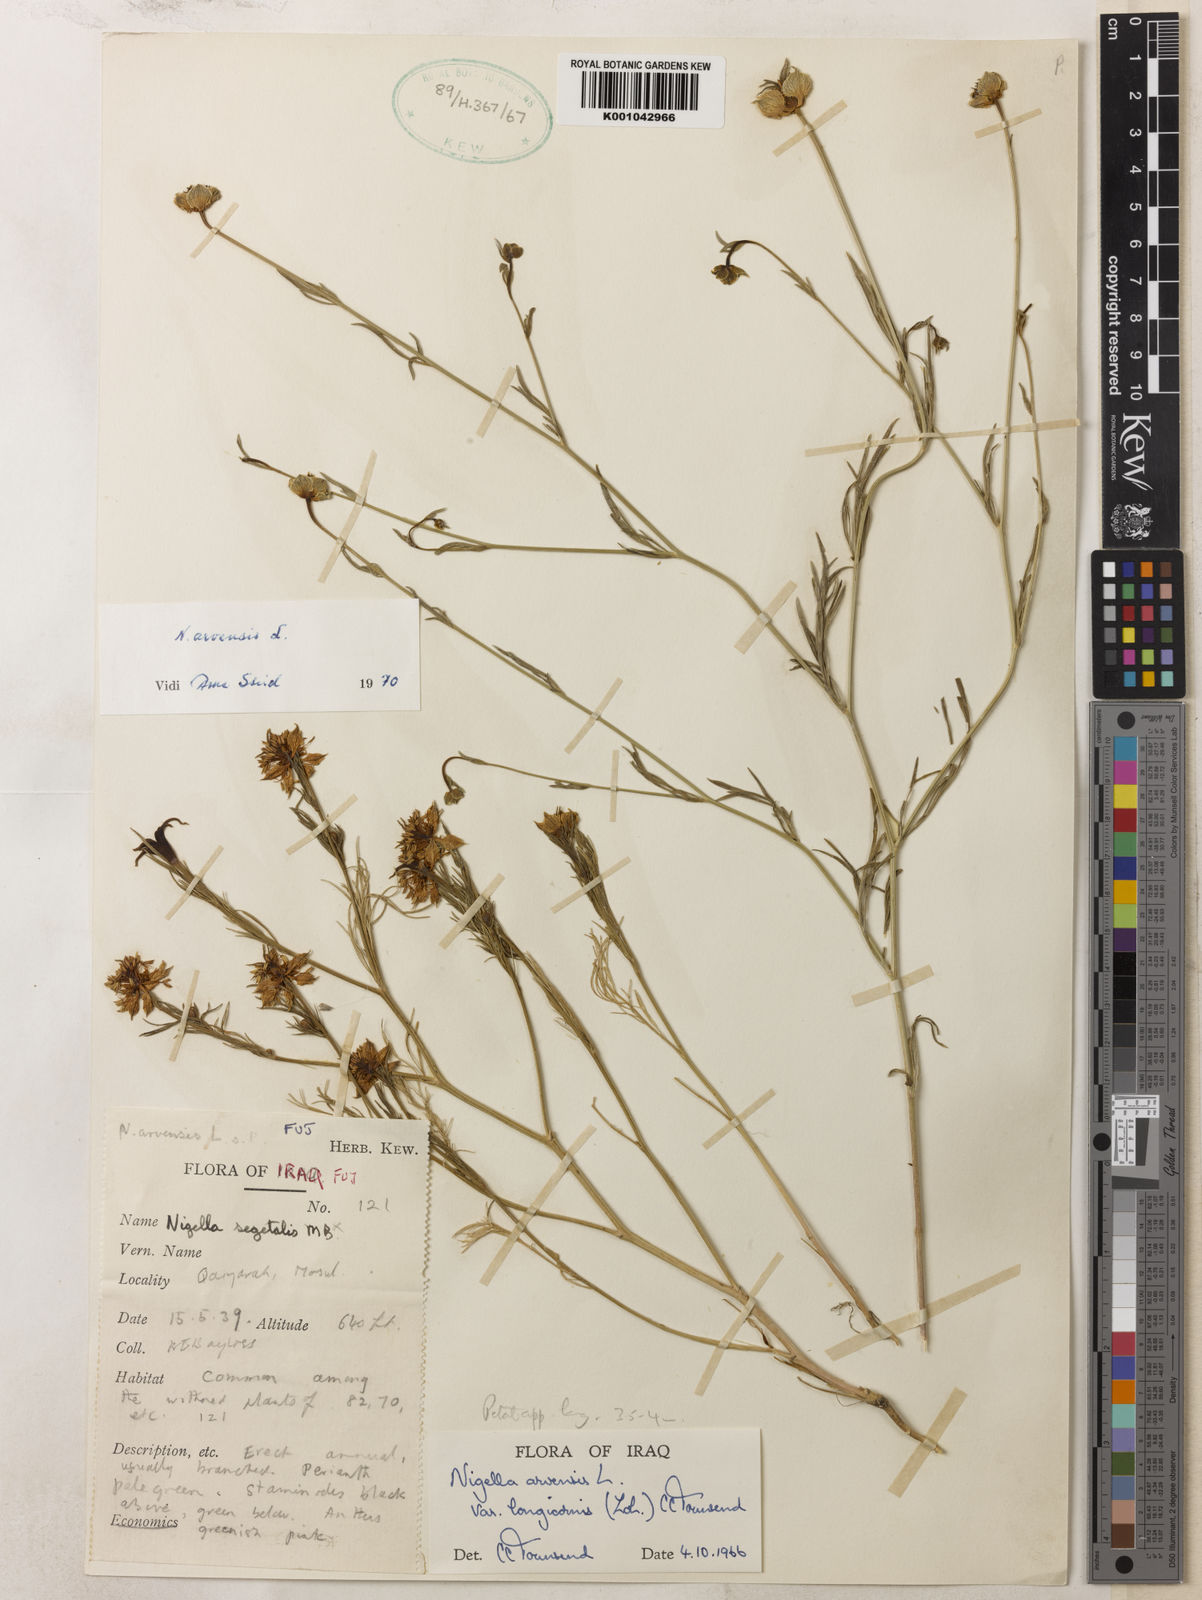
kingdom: Plantae
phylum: Tracheophyta
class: Magnoliopsida
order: Ranunculales
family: Ranunculaceae
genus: Nigella
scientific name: Nigella arvensis
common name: Wild fennel-flower
